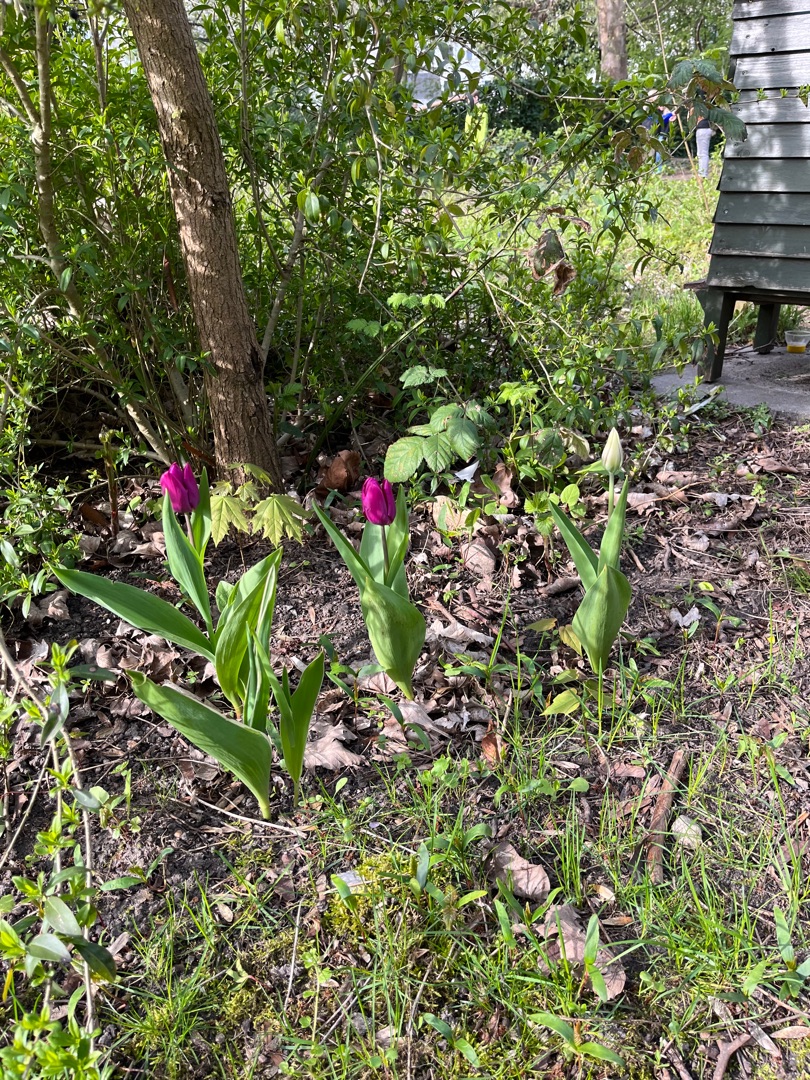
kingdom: Plantae
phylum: Tracheophyta
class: Liliopsida
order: Liliales
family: Liliaceae
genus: Tulipa
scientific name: Tulipa gesneriana
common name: Have-tulipan
